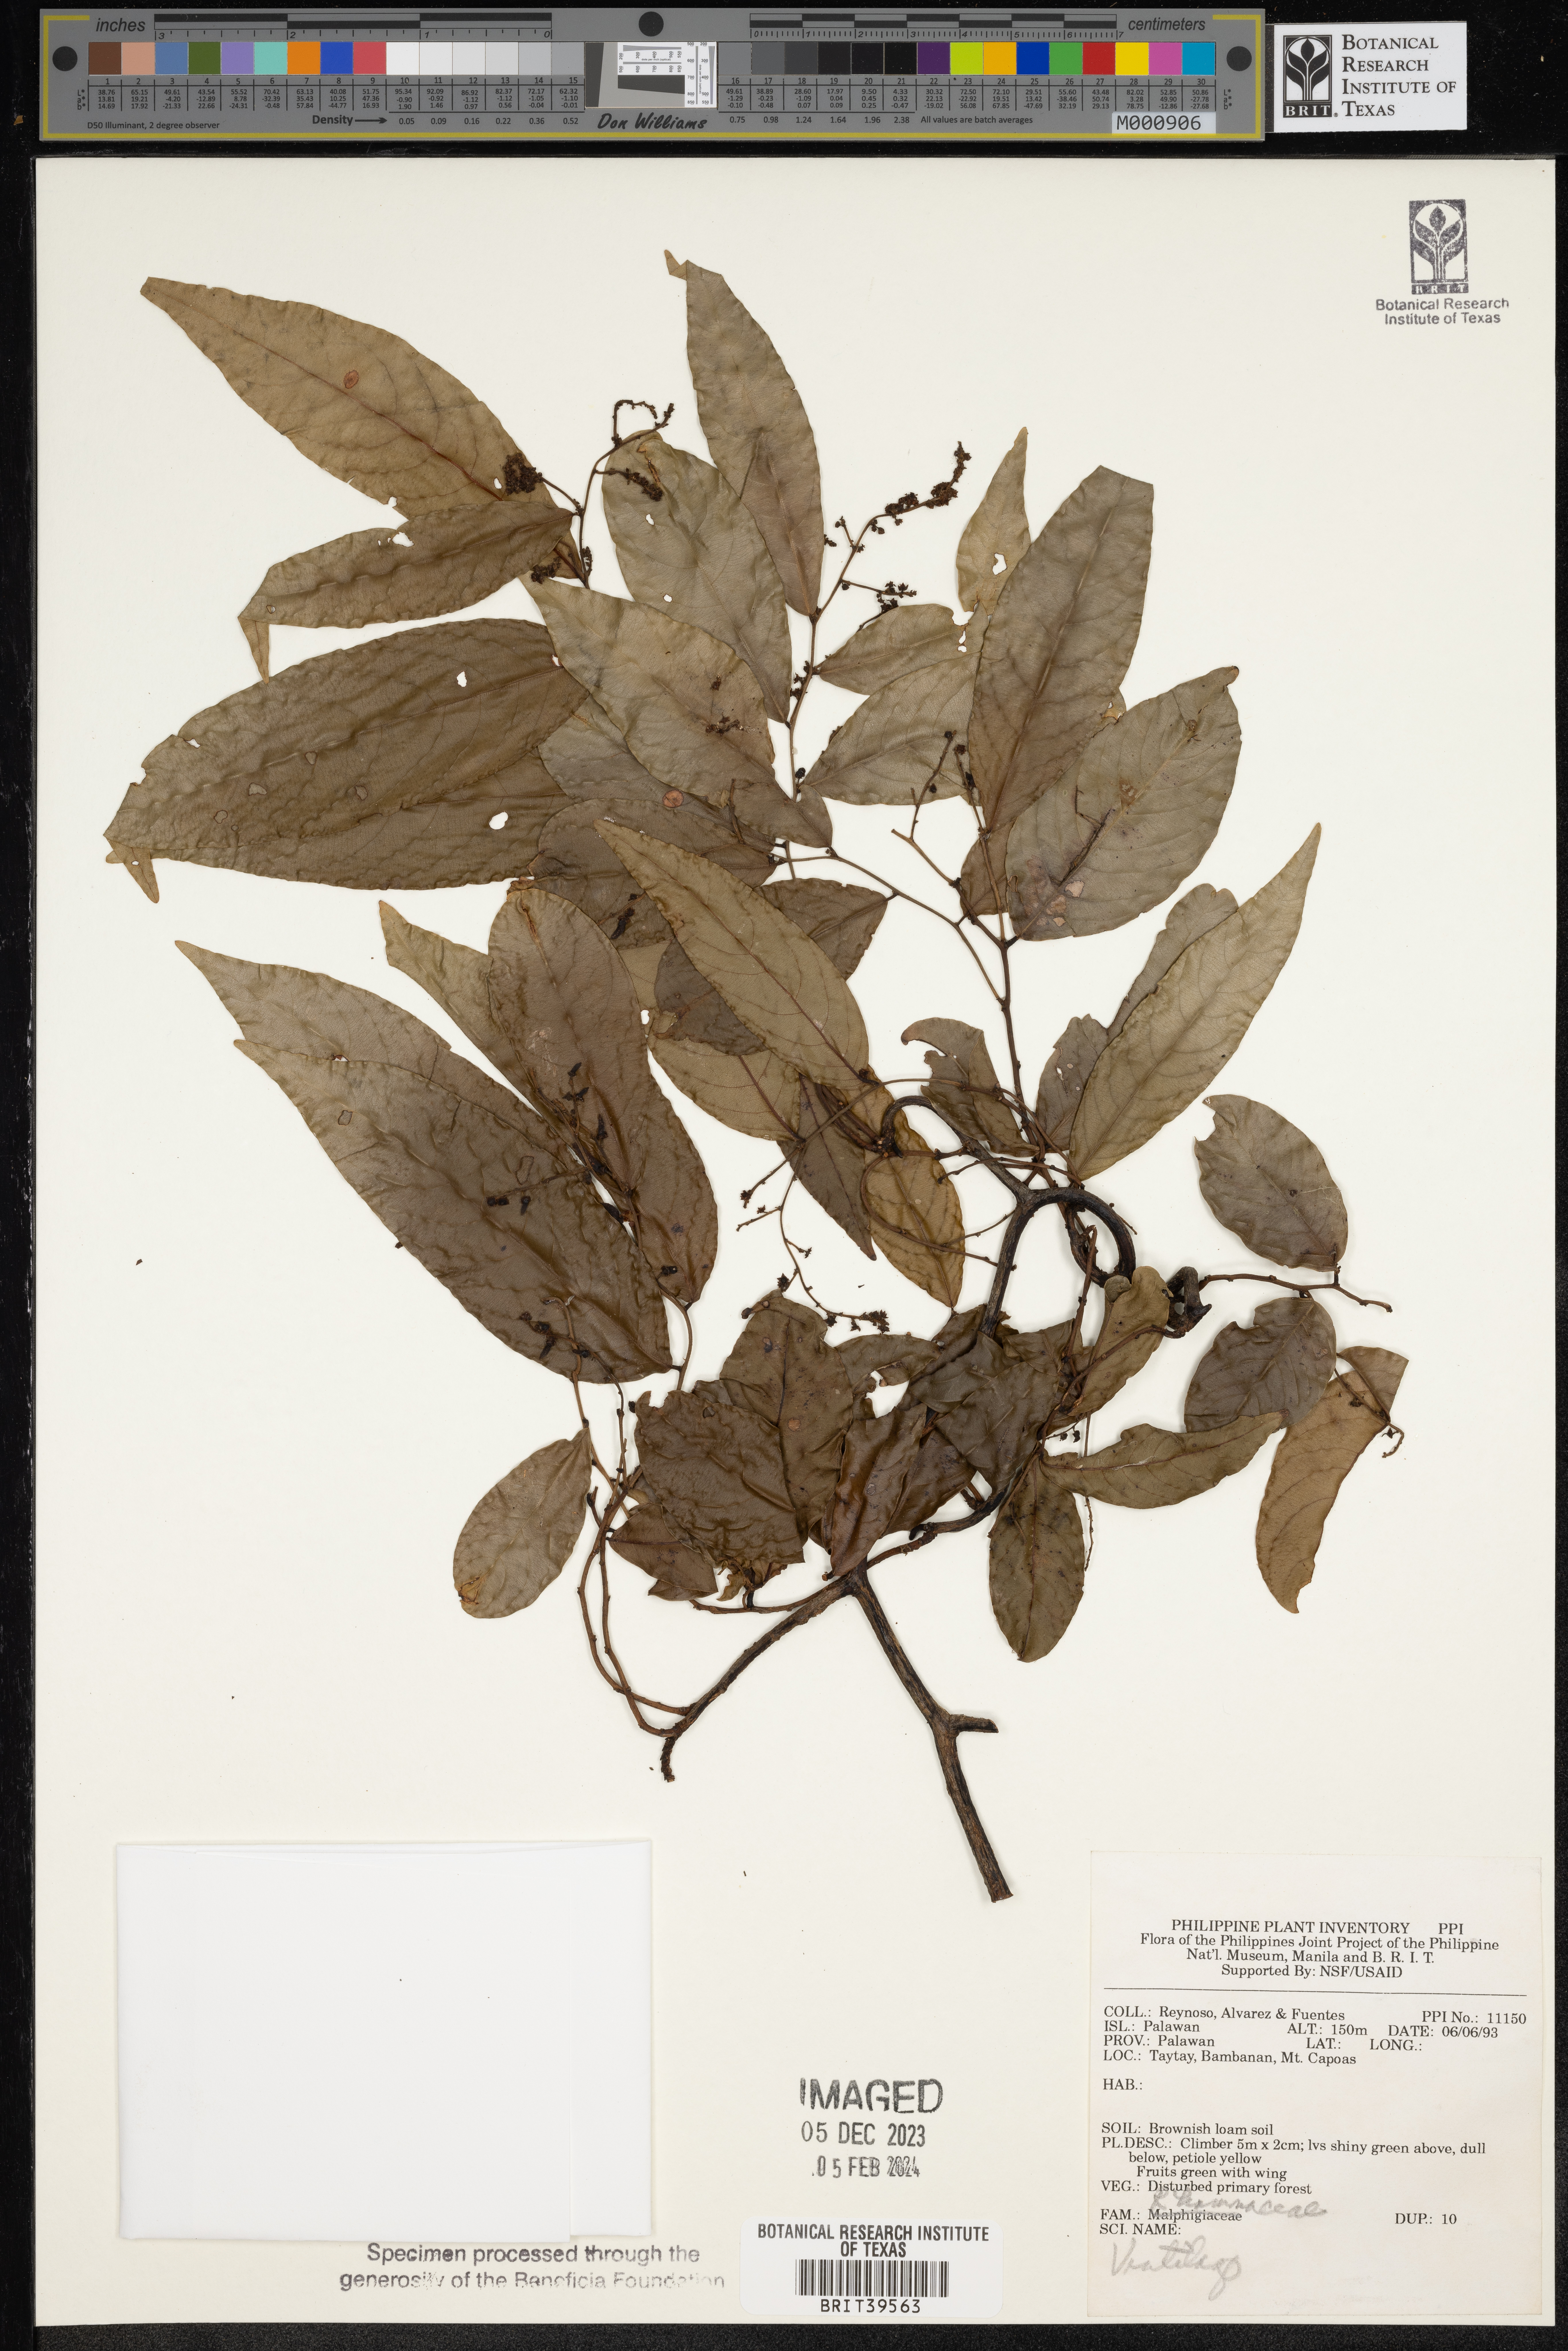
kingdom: Plantae
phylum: Tracheophyta
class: Magnoliopsida
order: Rosales
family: Rhamnaceae
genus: Ventilago
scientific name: Ventilago
